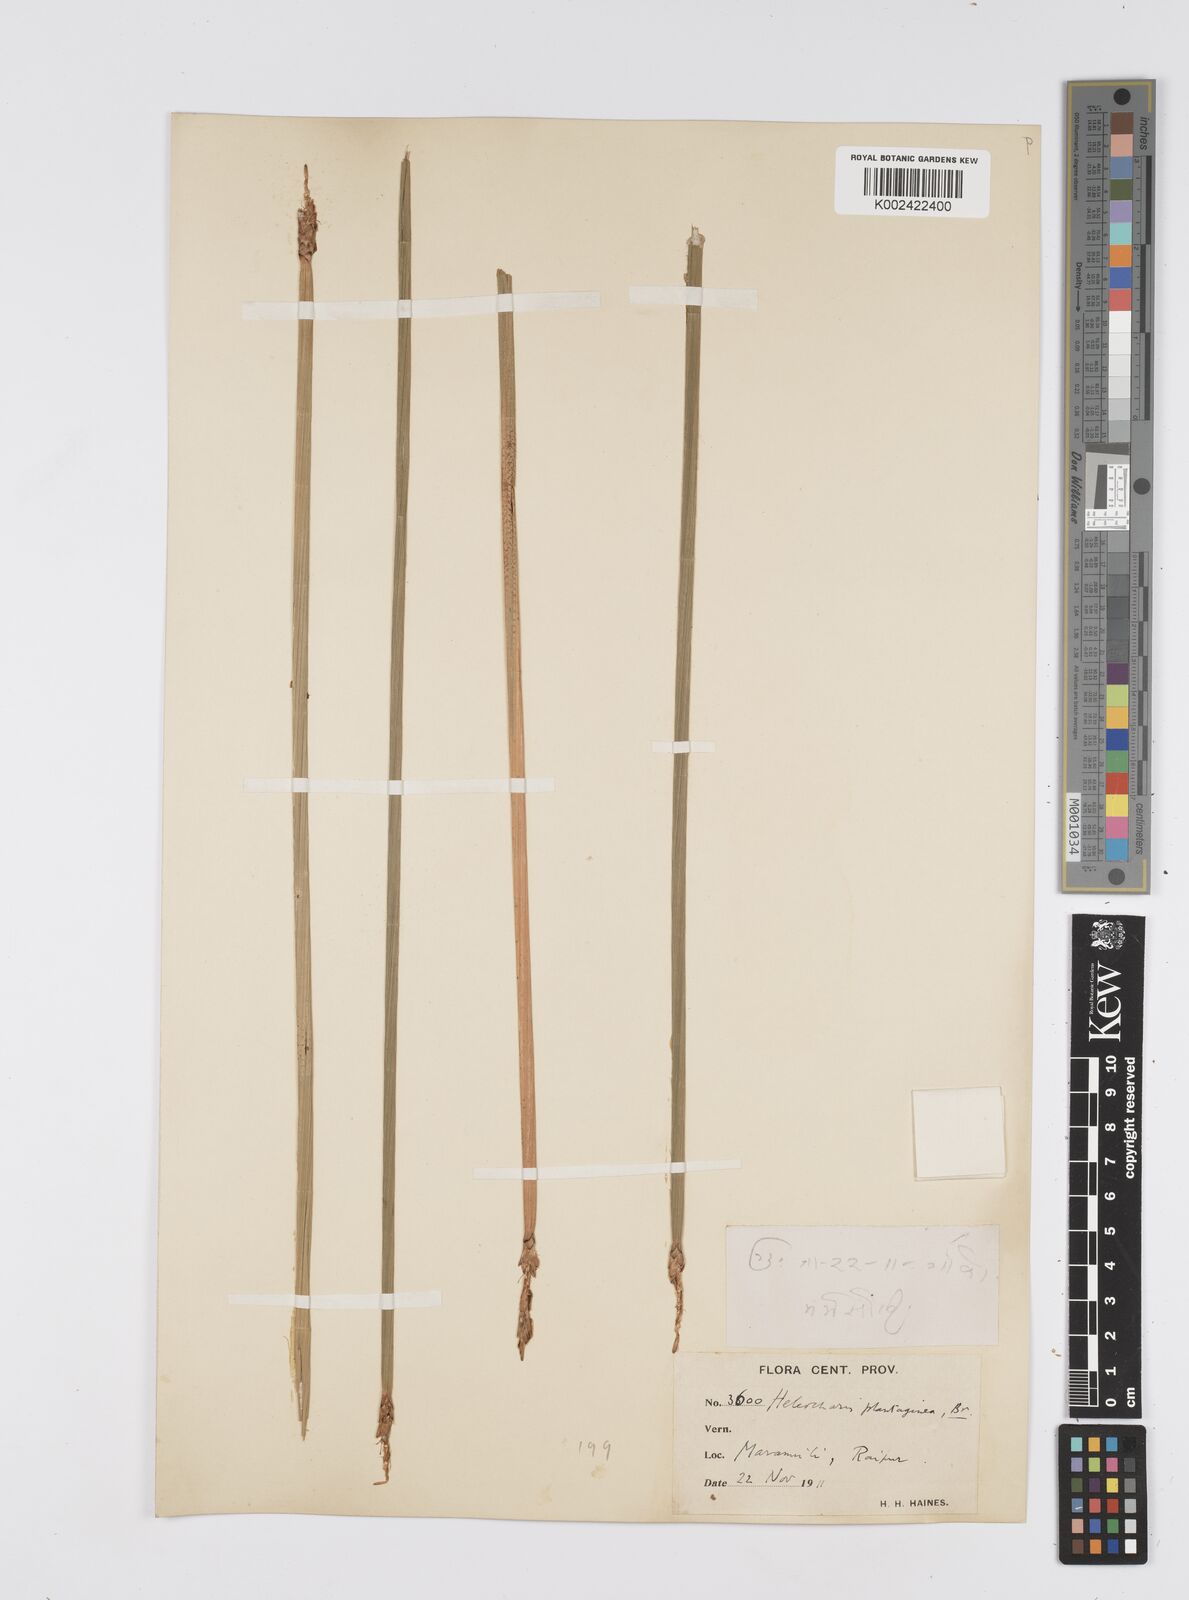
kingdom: Plantae
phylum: Tracheophyta
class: Liliopsida
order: Poales
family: Cyperaceae
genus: Eleocharis
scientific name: Eleocharis dulcis
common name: Chinese water chestnut
